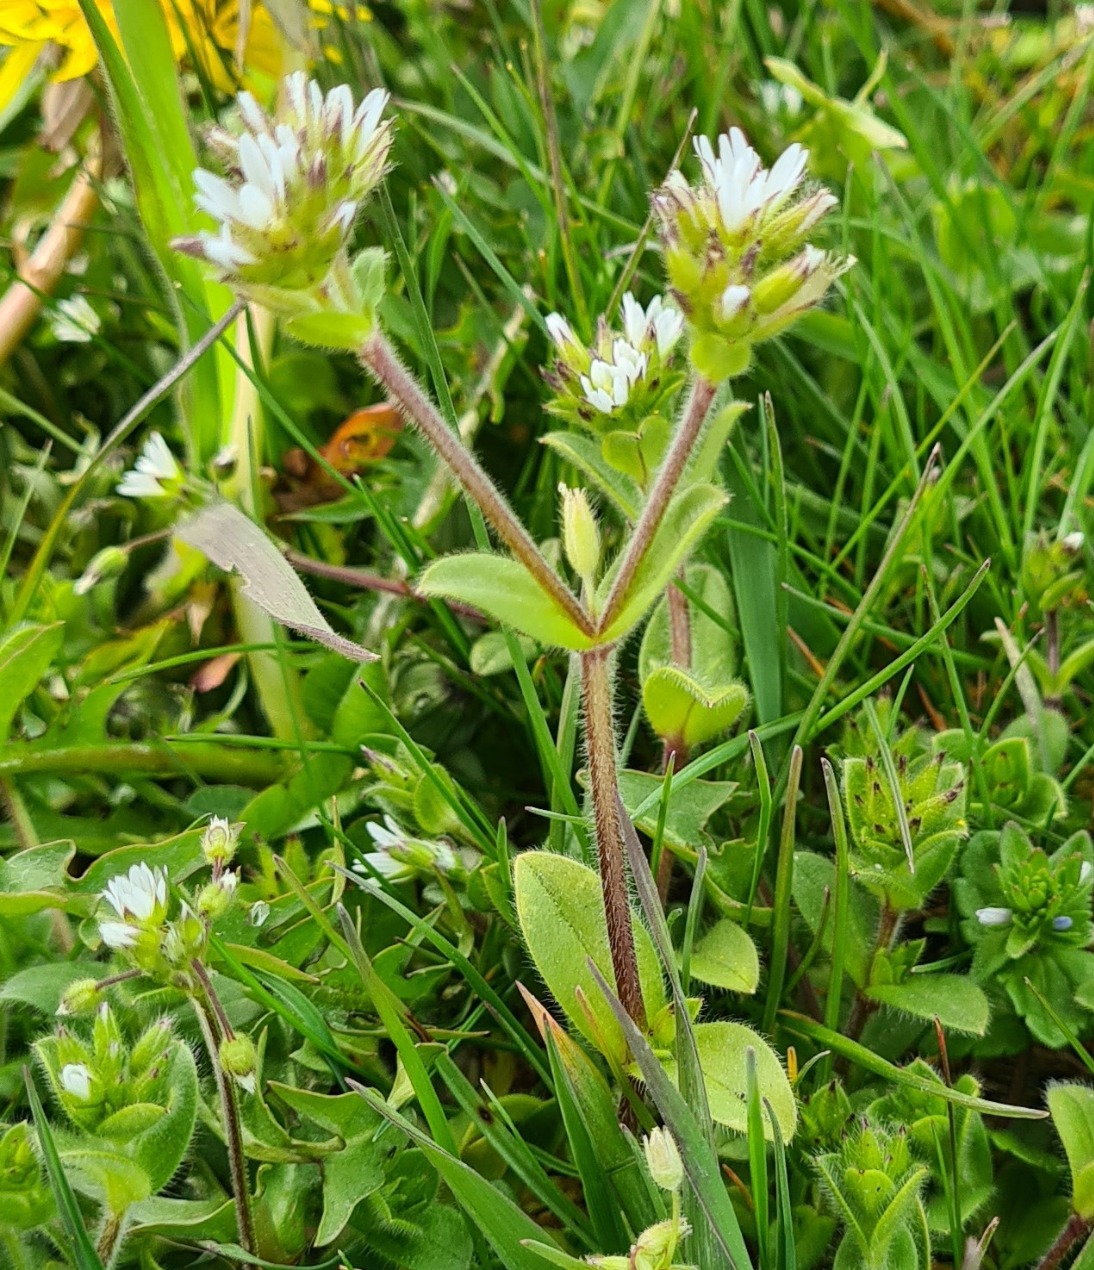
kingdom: Plantae
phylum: Tracheophyta
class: Magnoliopsida
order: Caryophyllales
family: Caryophyllaceae
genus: Cerastium
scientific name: Cerastium glomeratum
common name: Opret hønsetarm
